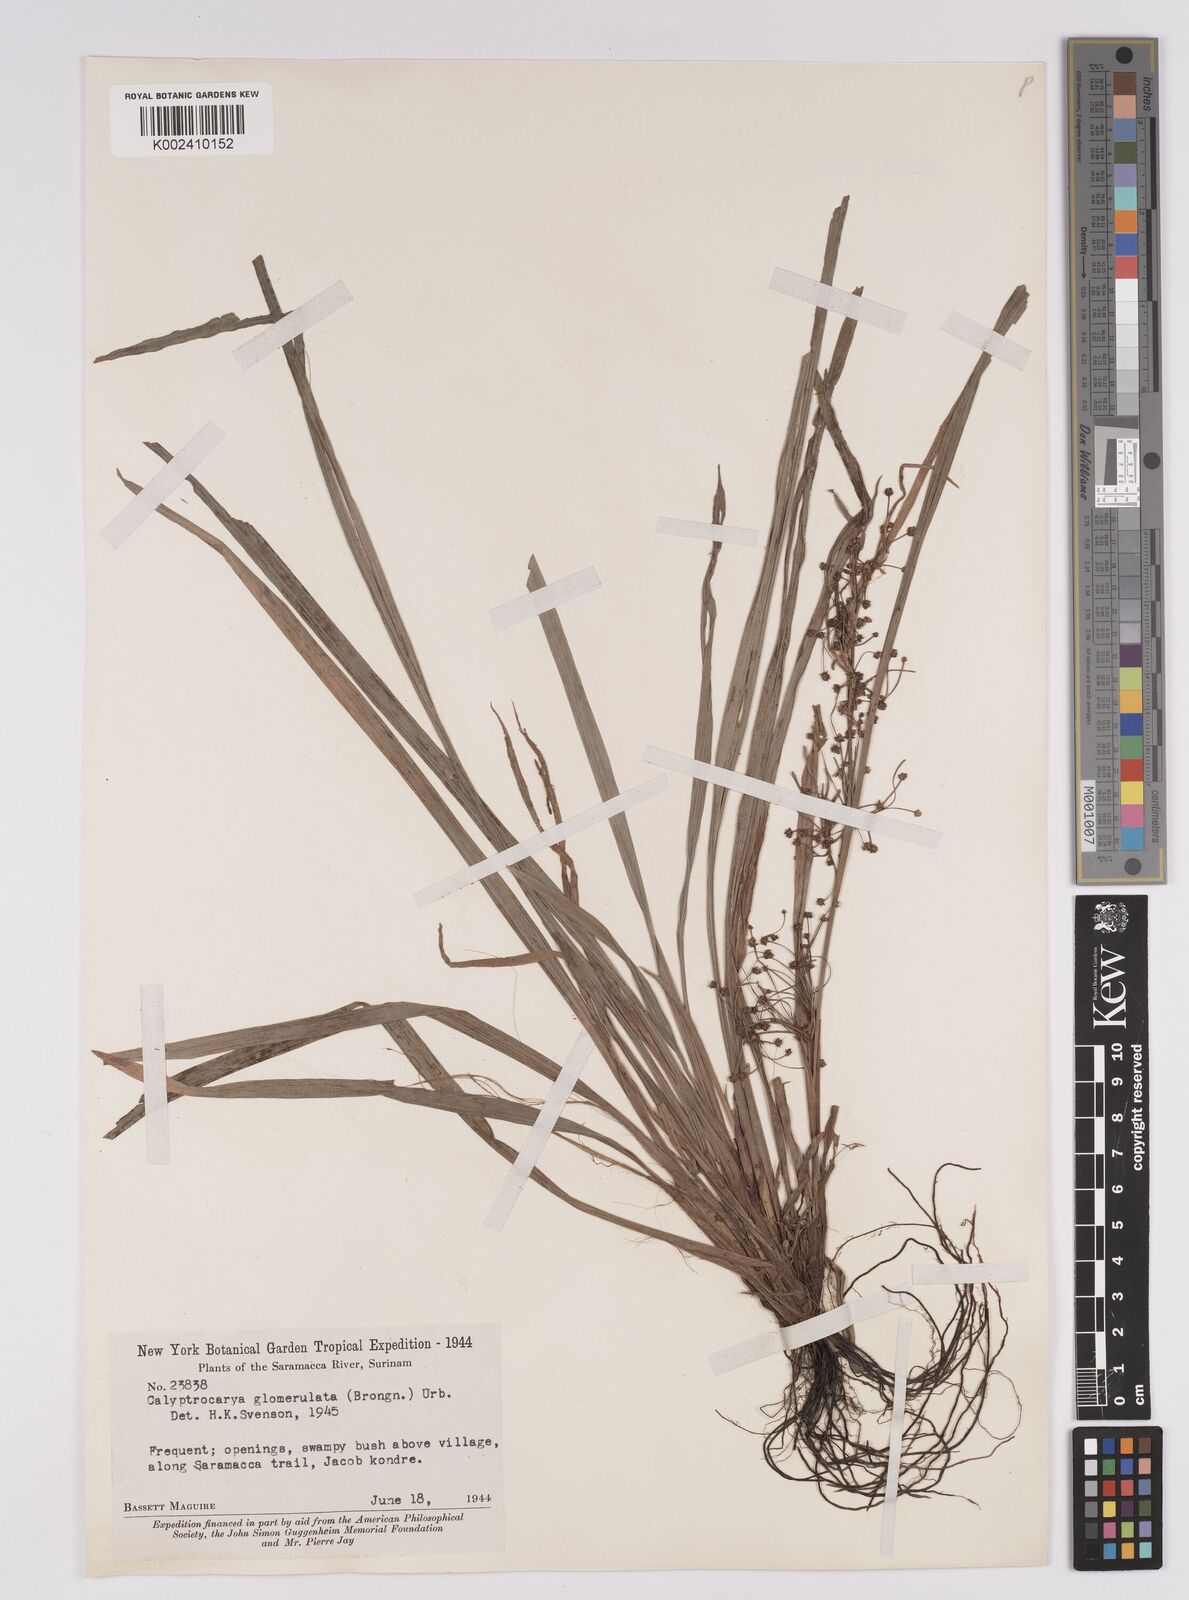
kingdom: Plantae
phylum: Tracheophyta
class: Liliopsida
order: Poales
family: Cyperaceae
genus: Calyptrocarya
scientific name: Calyptrocarya glomerulata
